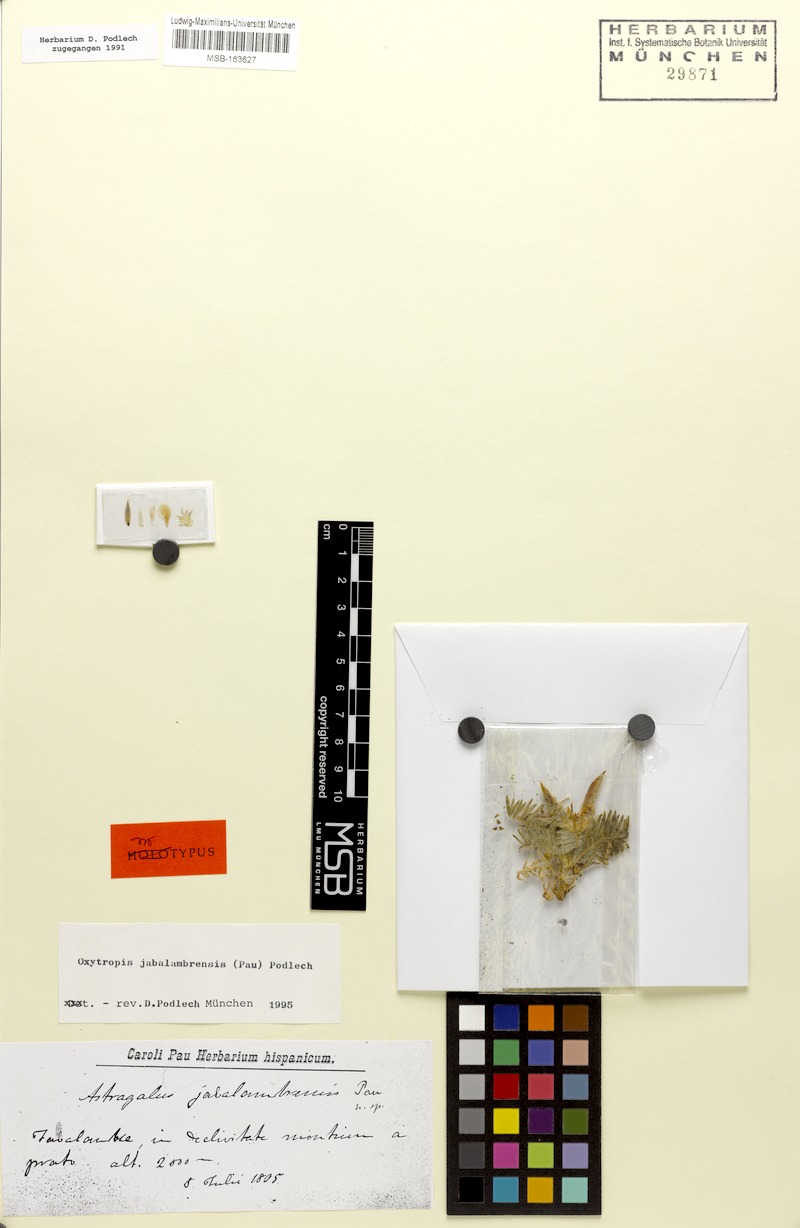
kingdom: Plantae
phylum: Tracheophyta
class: Magnoliopsida
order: Fabales
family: Fabaceae
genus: Oxytropis
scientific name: Oxytropis jabalambrensis
